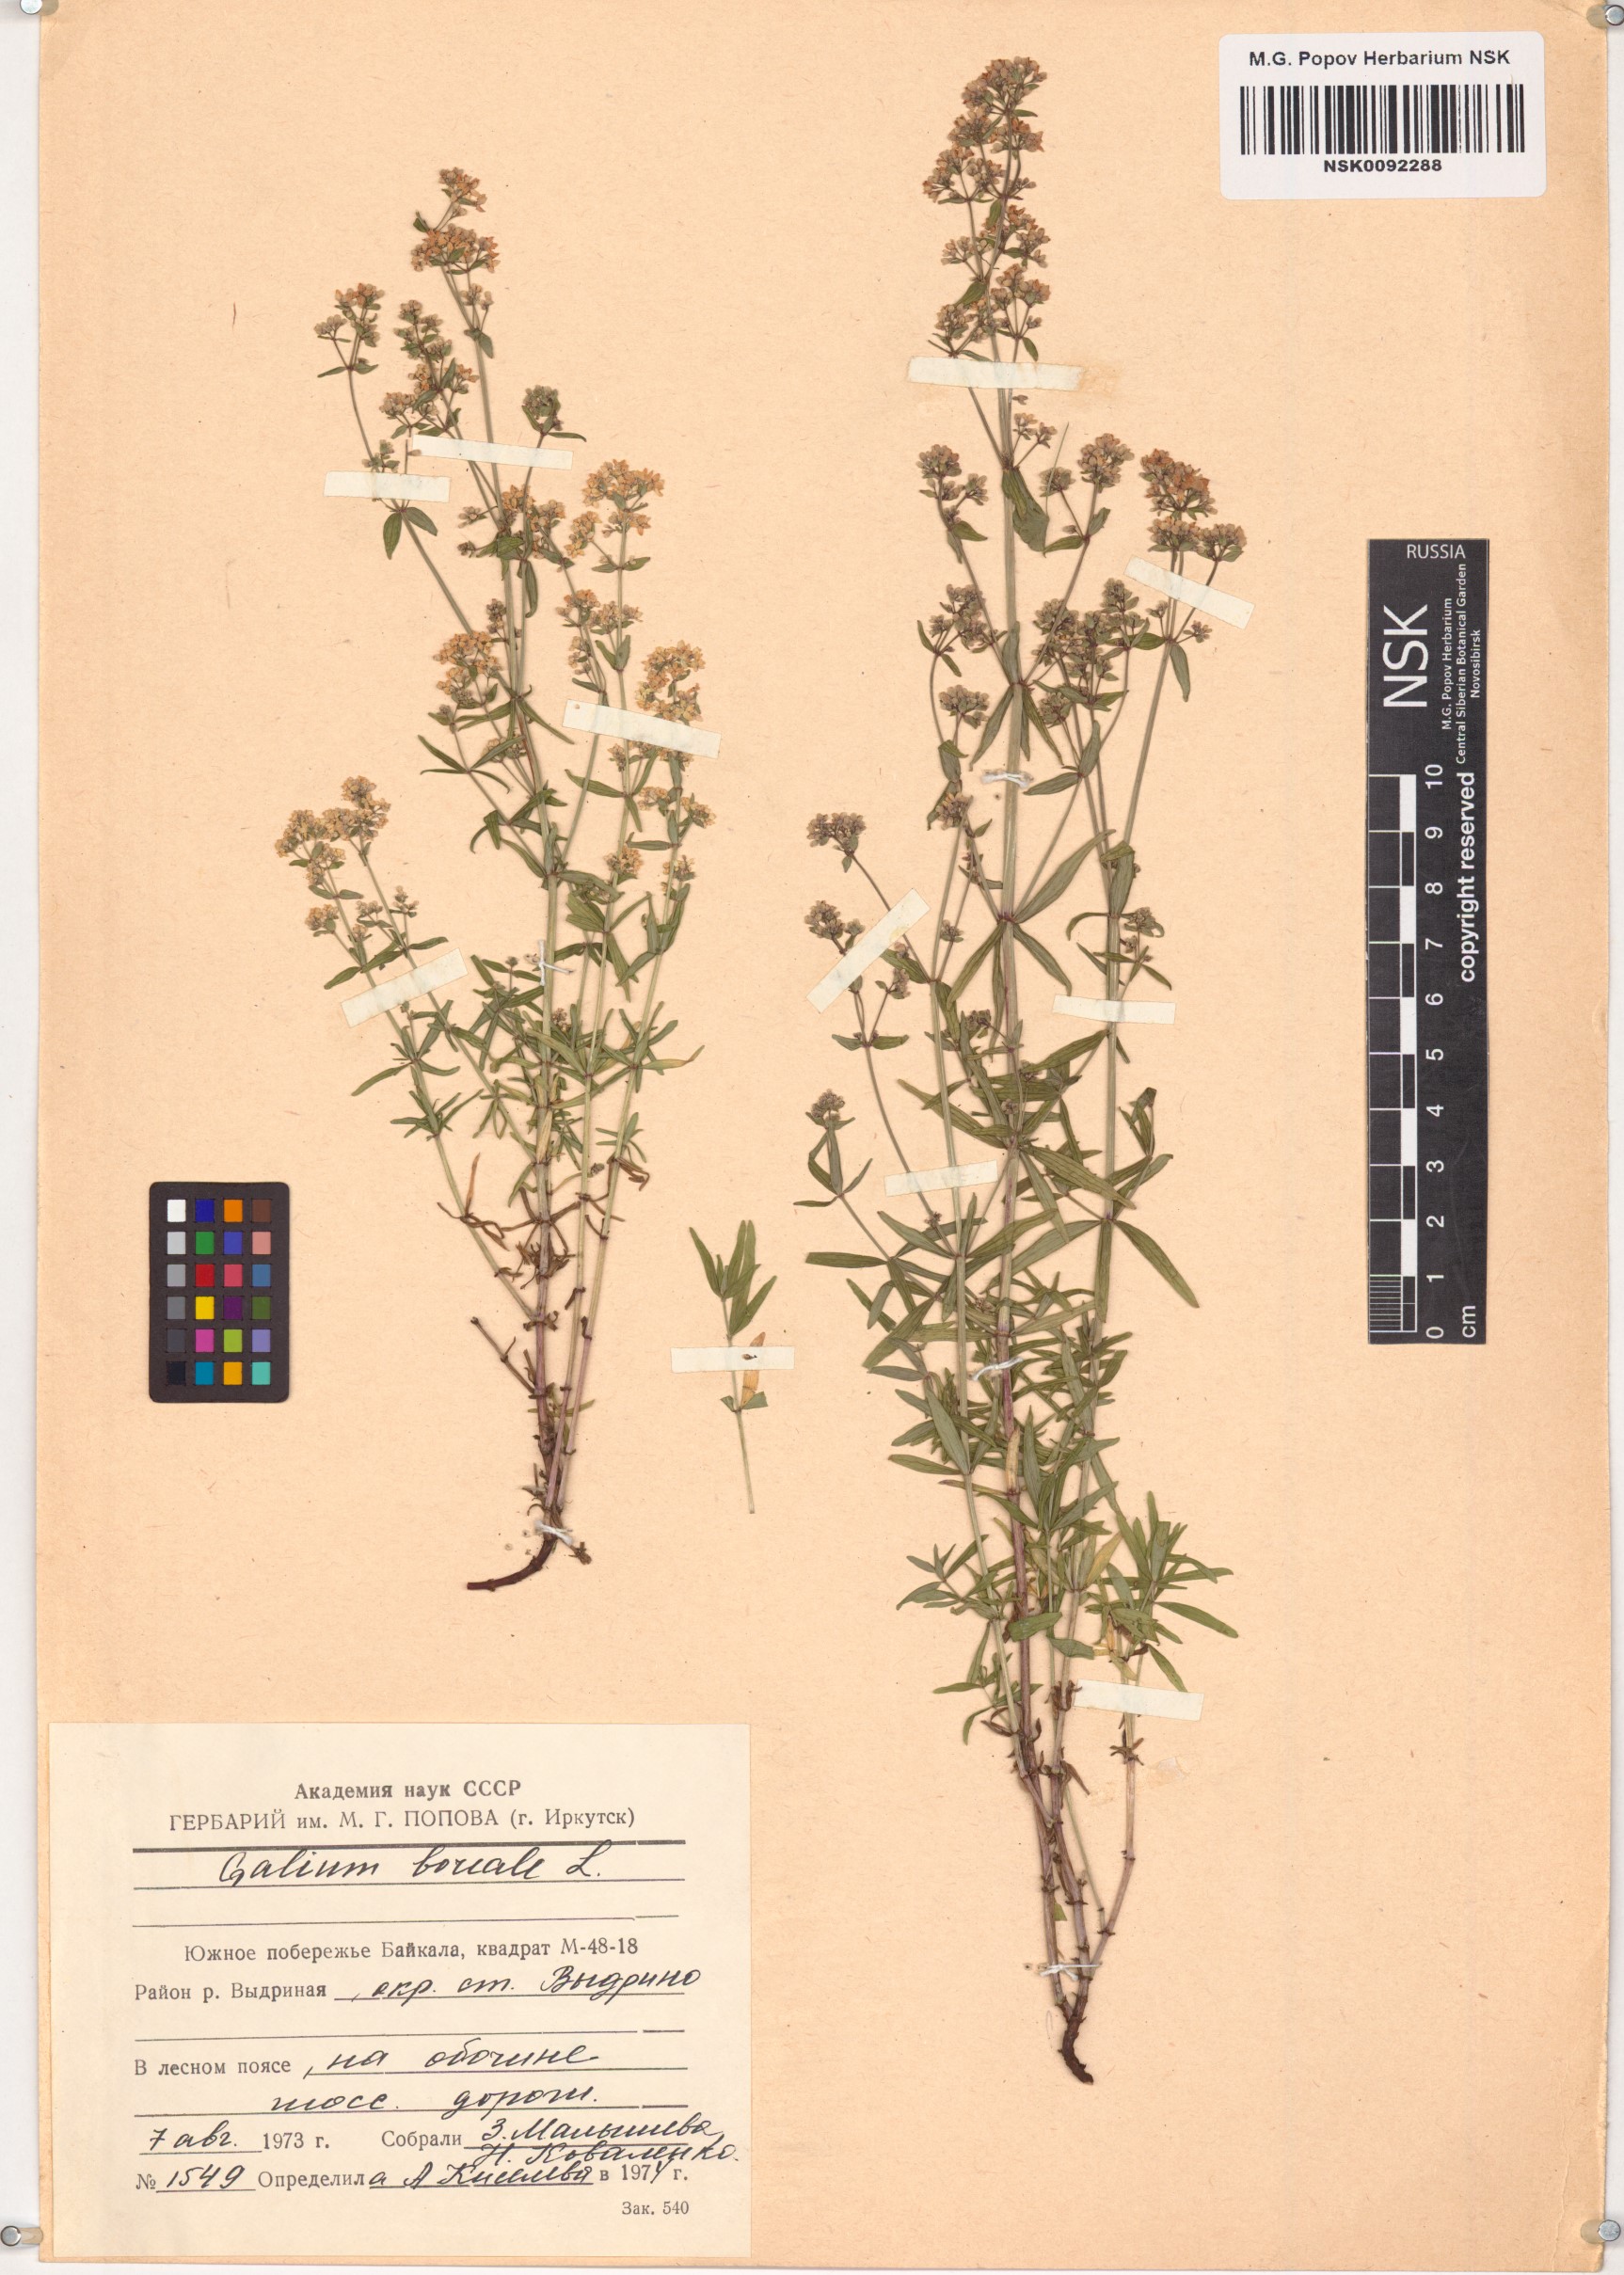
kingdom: Plantae
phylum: Tracheophyta
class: Magnoliopsida
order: Gentianales
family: Rubiaceae
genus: Galium
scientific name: Galium boreale
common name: Northern bedstraw
